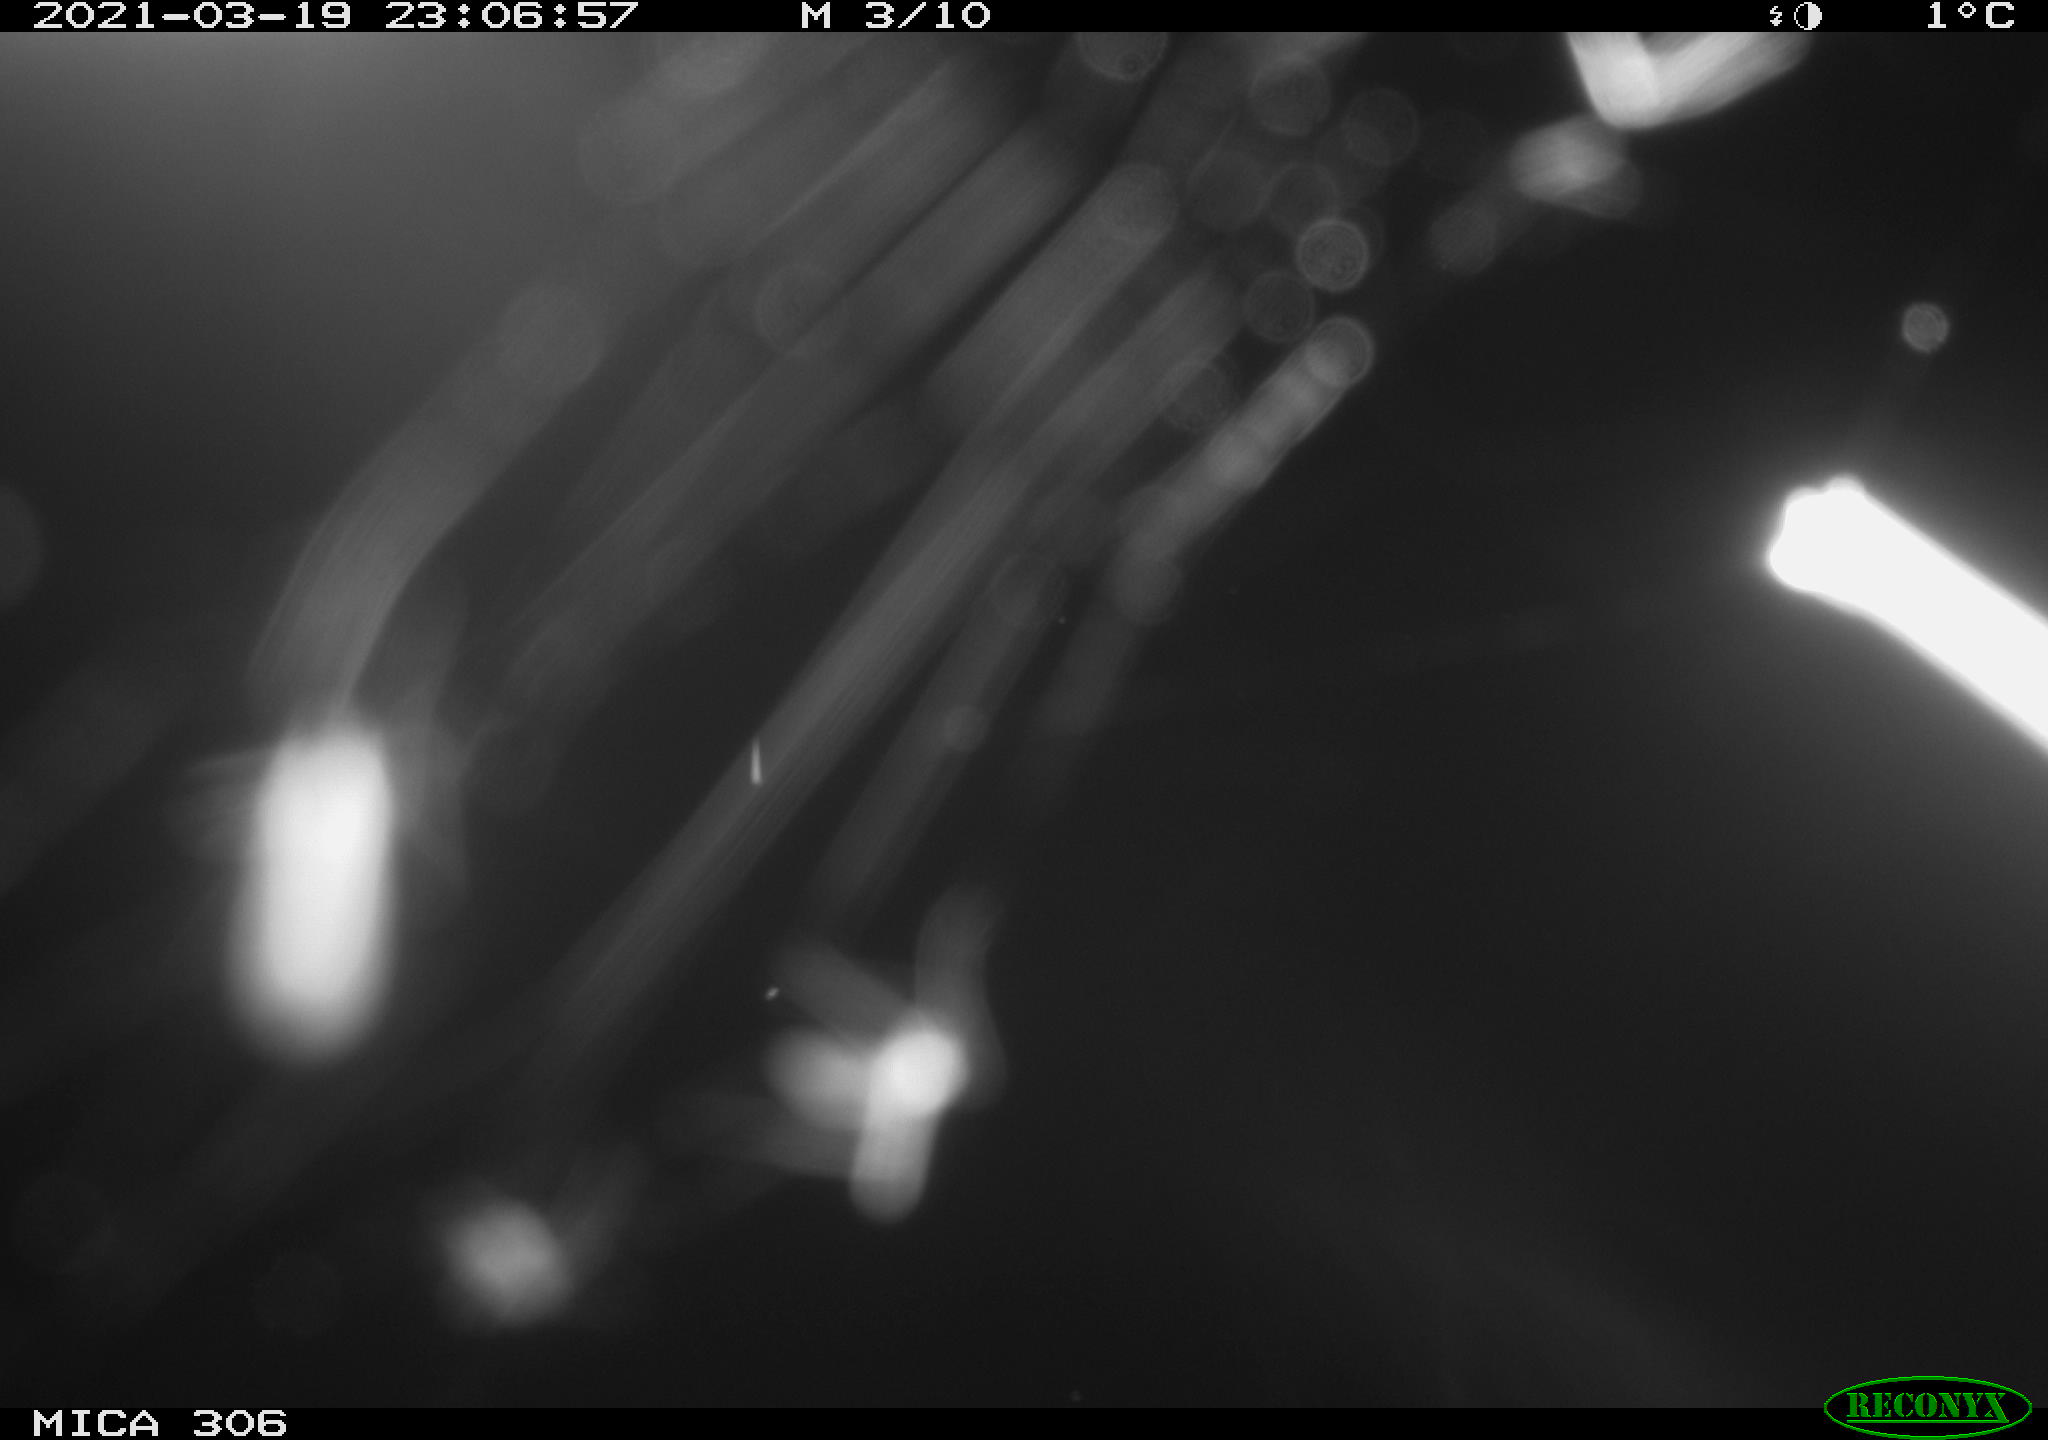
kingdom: Animalia
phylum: Chordata
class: Aves
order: Gruiformes
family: Rallidae
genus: Gallinula
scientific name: Gallinula chloropus
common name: Common moorhen
